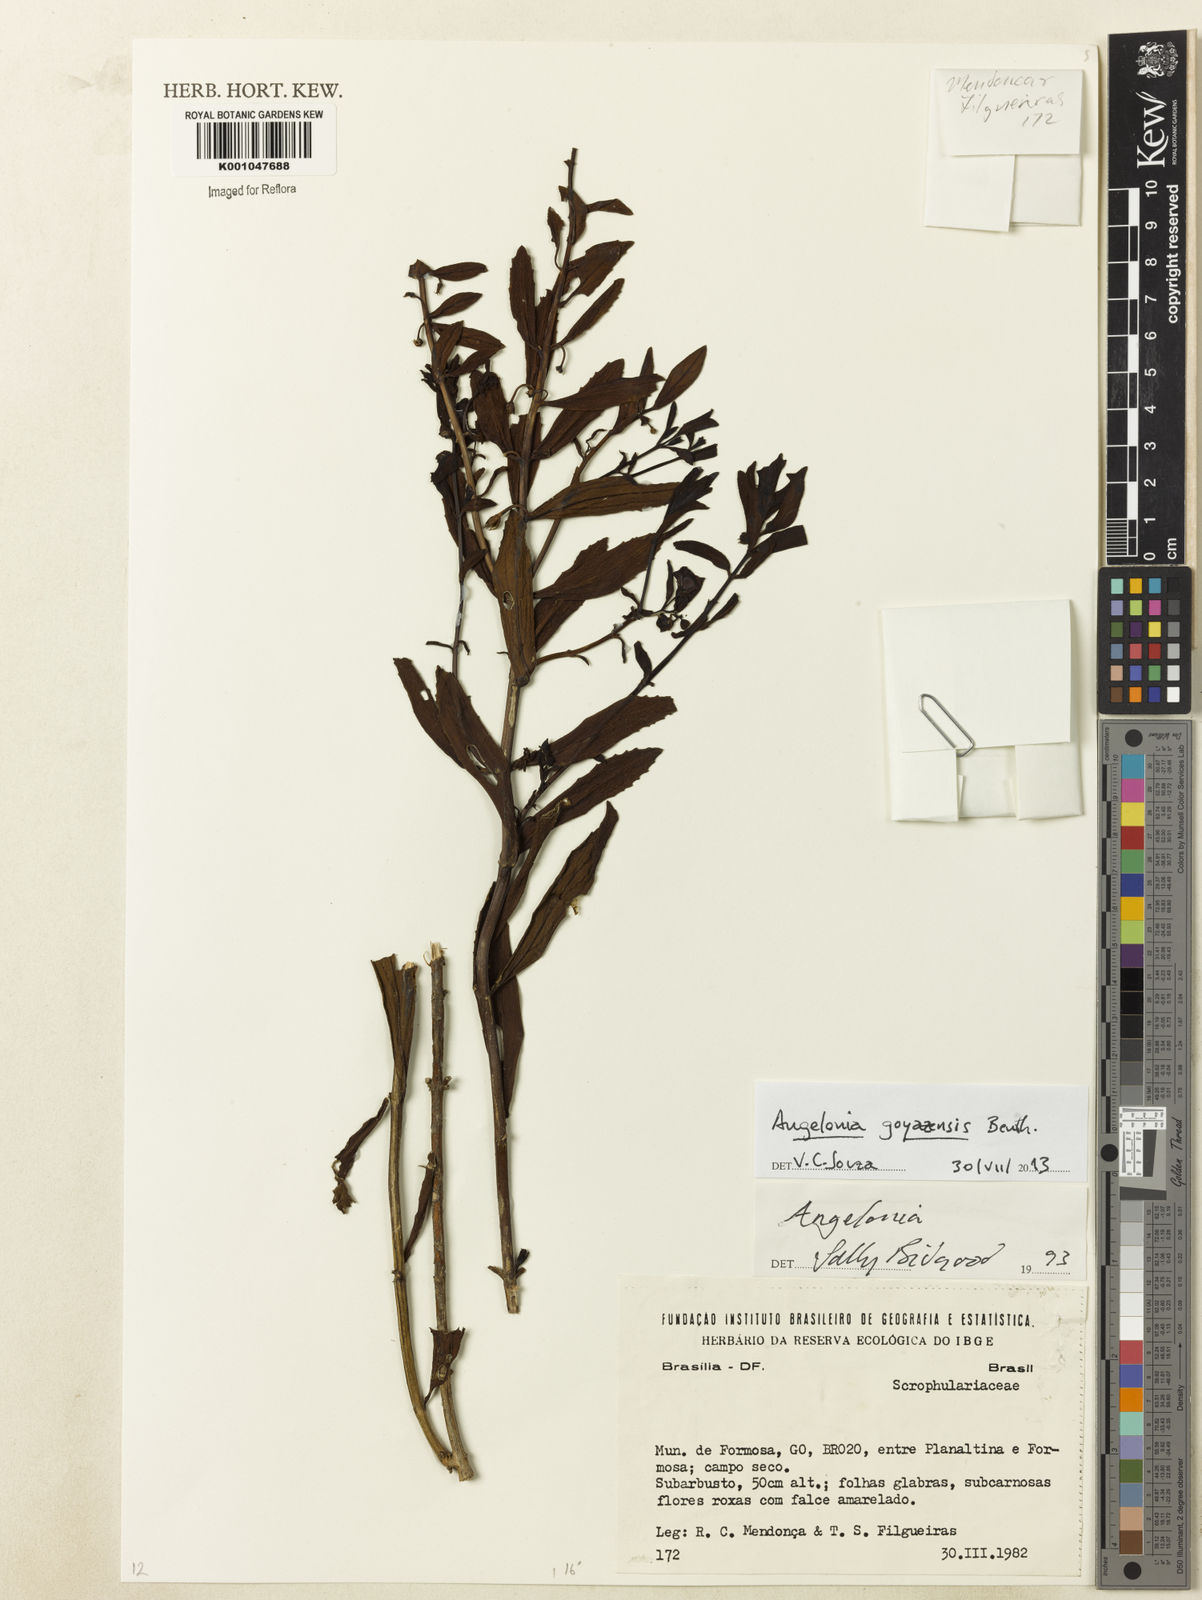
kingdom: Plantae
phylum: Tracheophyta
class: Magnoliopsida
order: Lamiales
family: Plantaginaceae
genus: Angelonia
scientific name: Angelonia goyazensis
